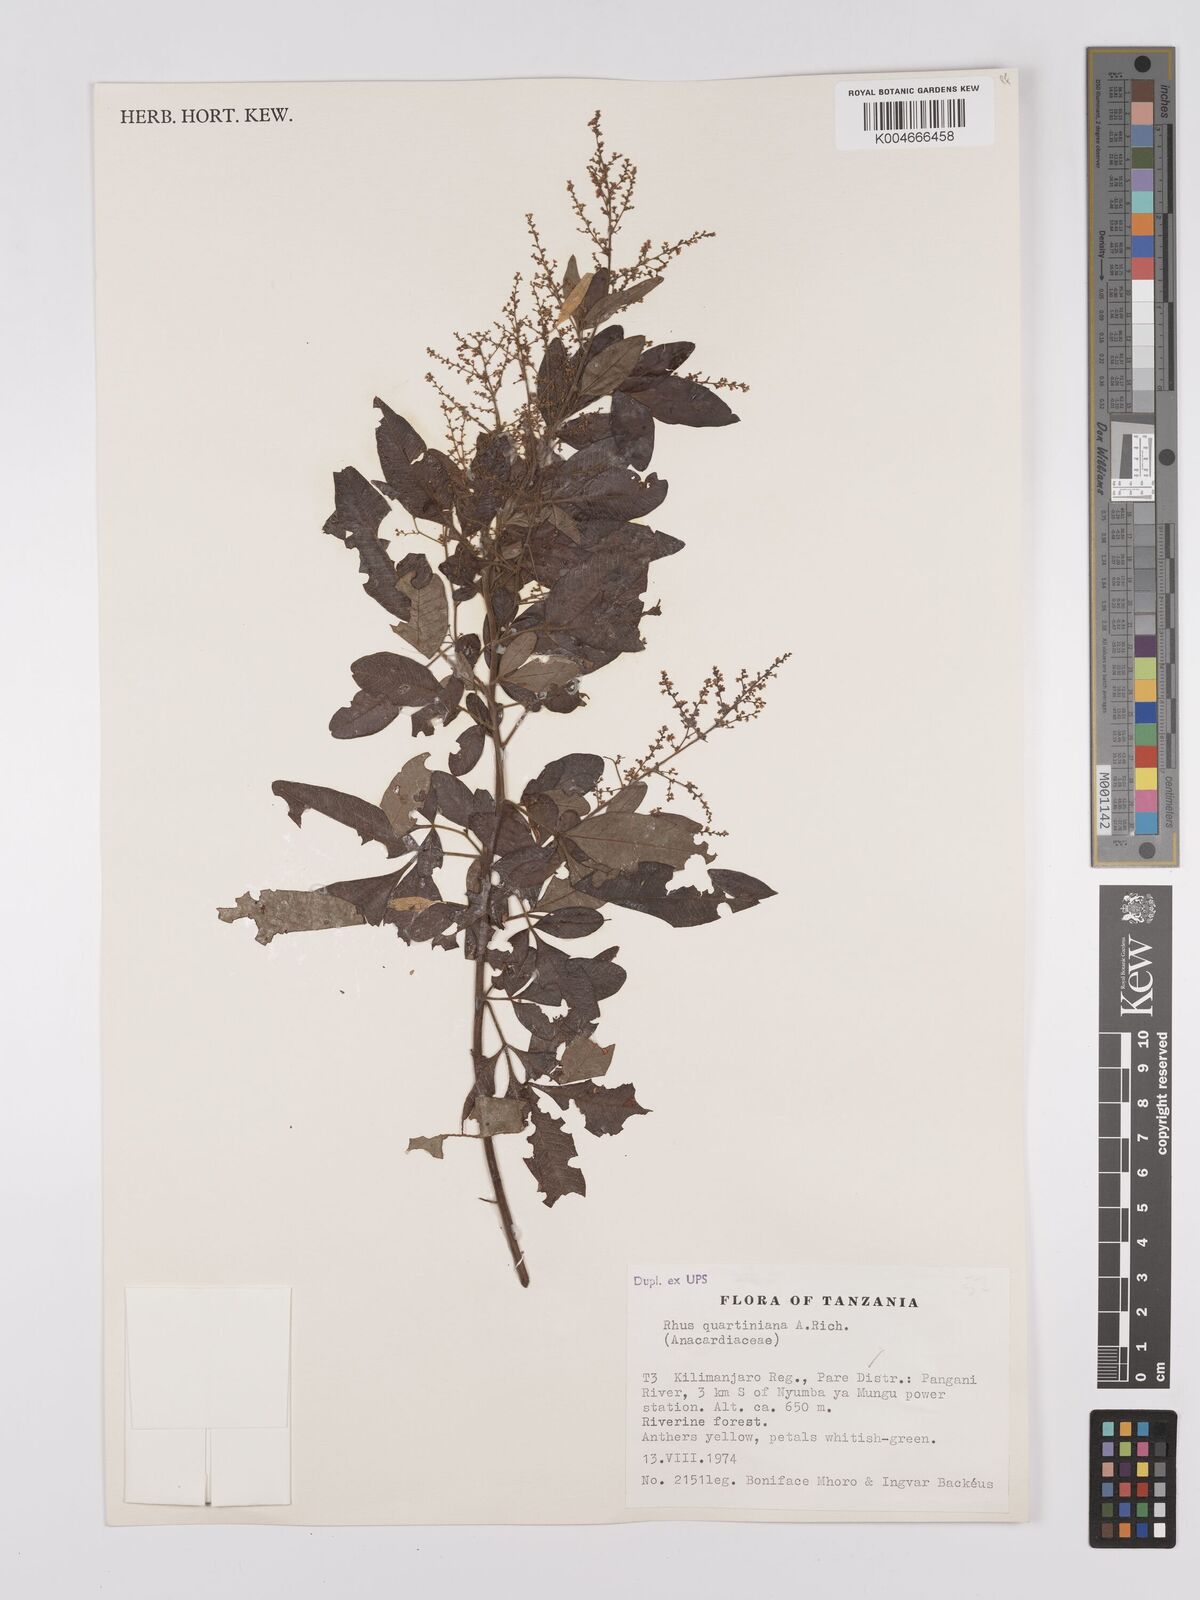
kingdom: Plantae
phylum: Tracheophyta
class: Magnoliopsida
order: Sapindales
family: Anacardiaceae
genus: Searsia
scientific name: Searsia quartiniana
